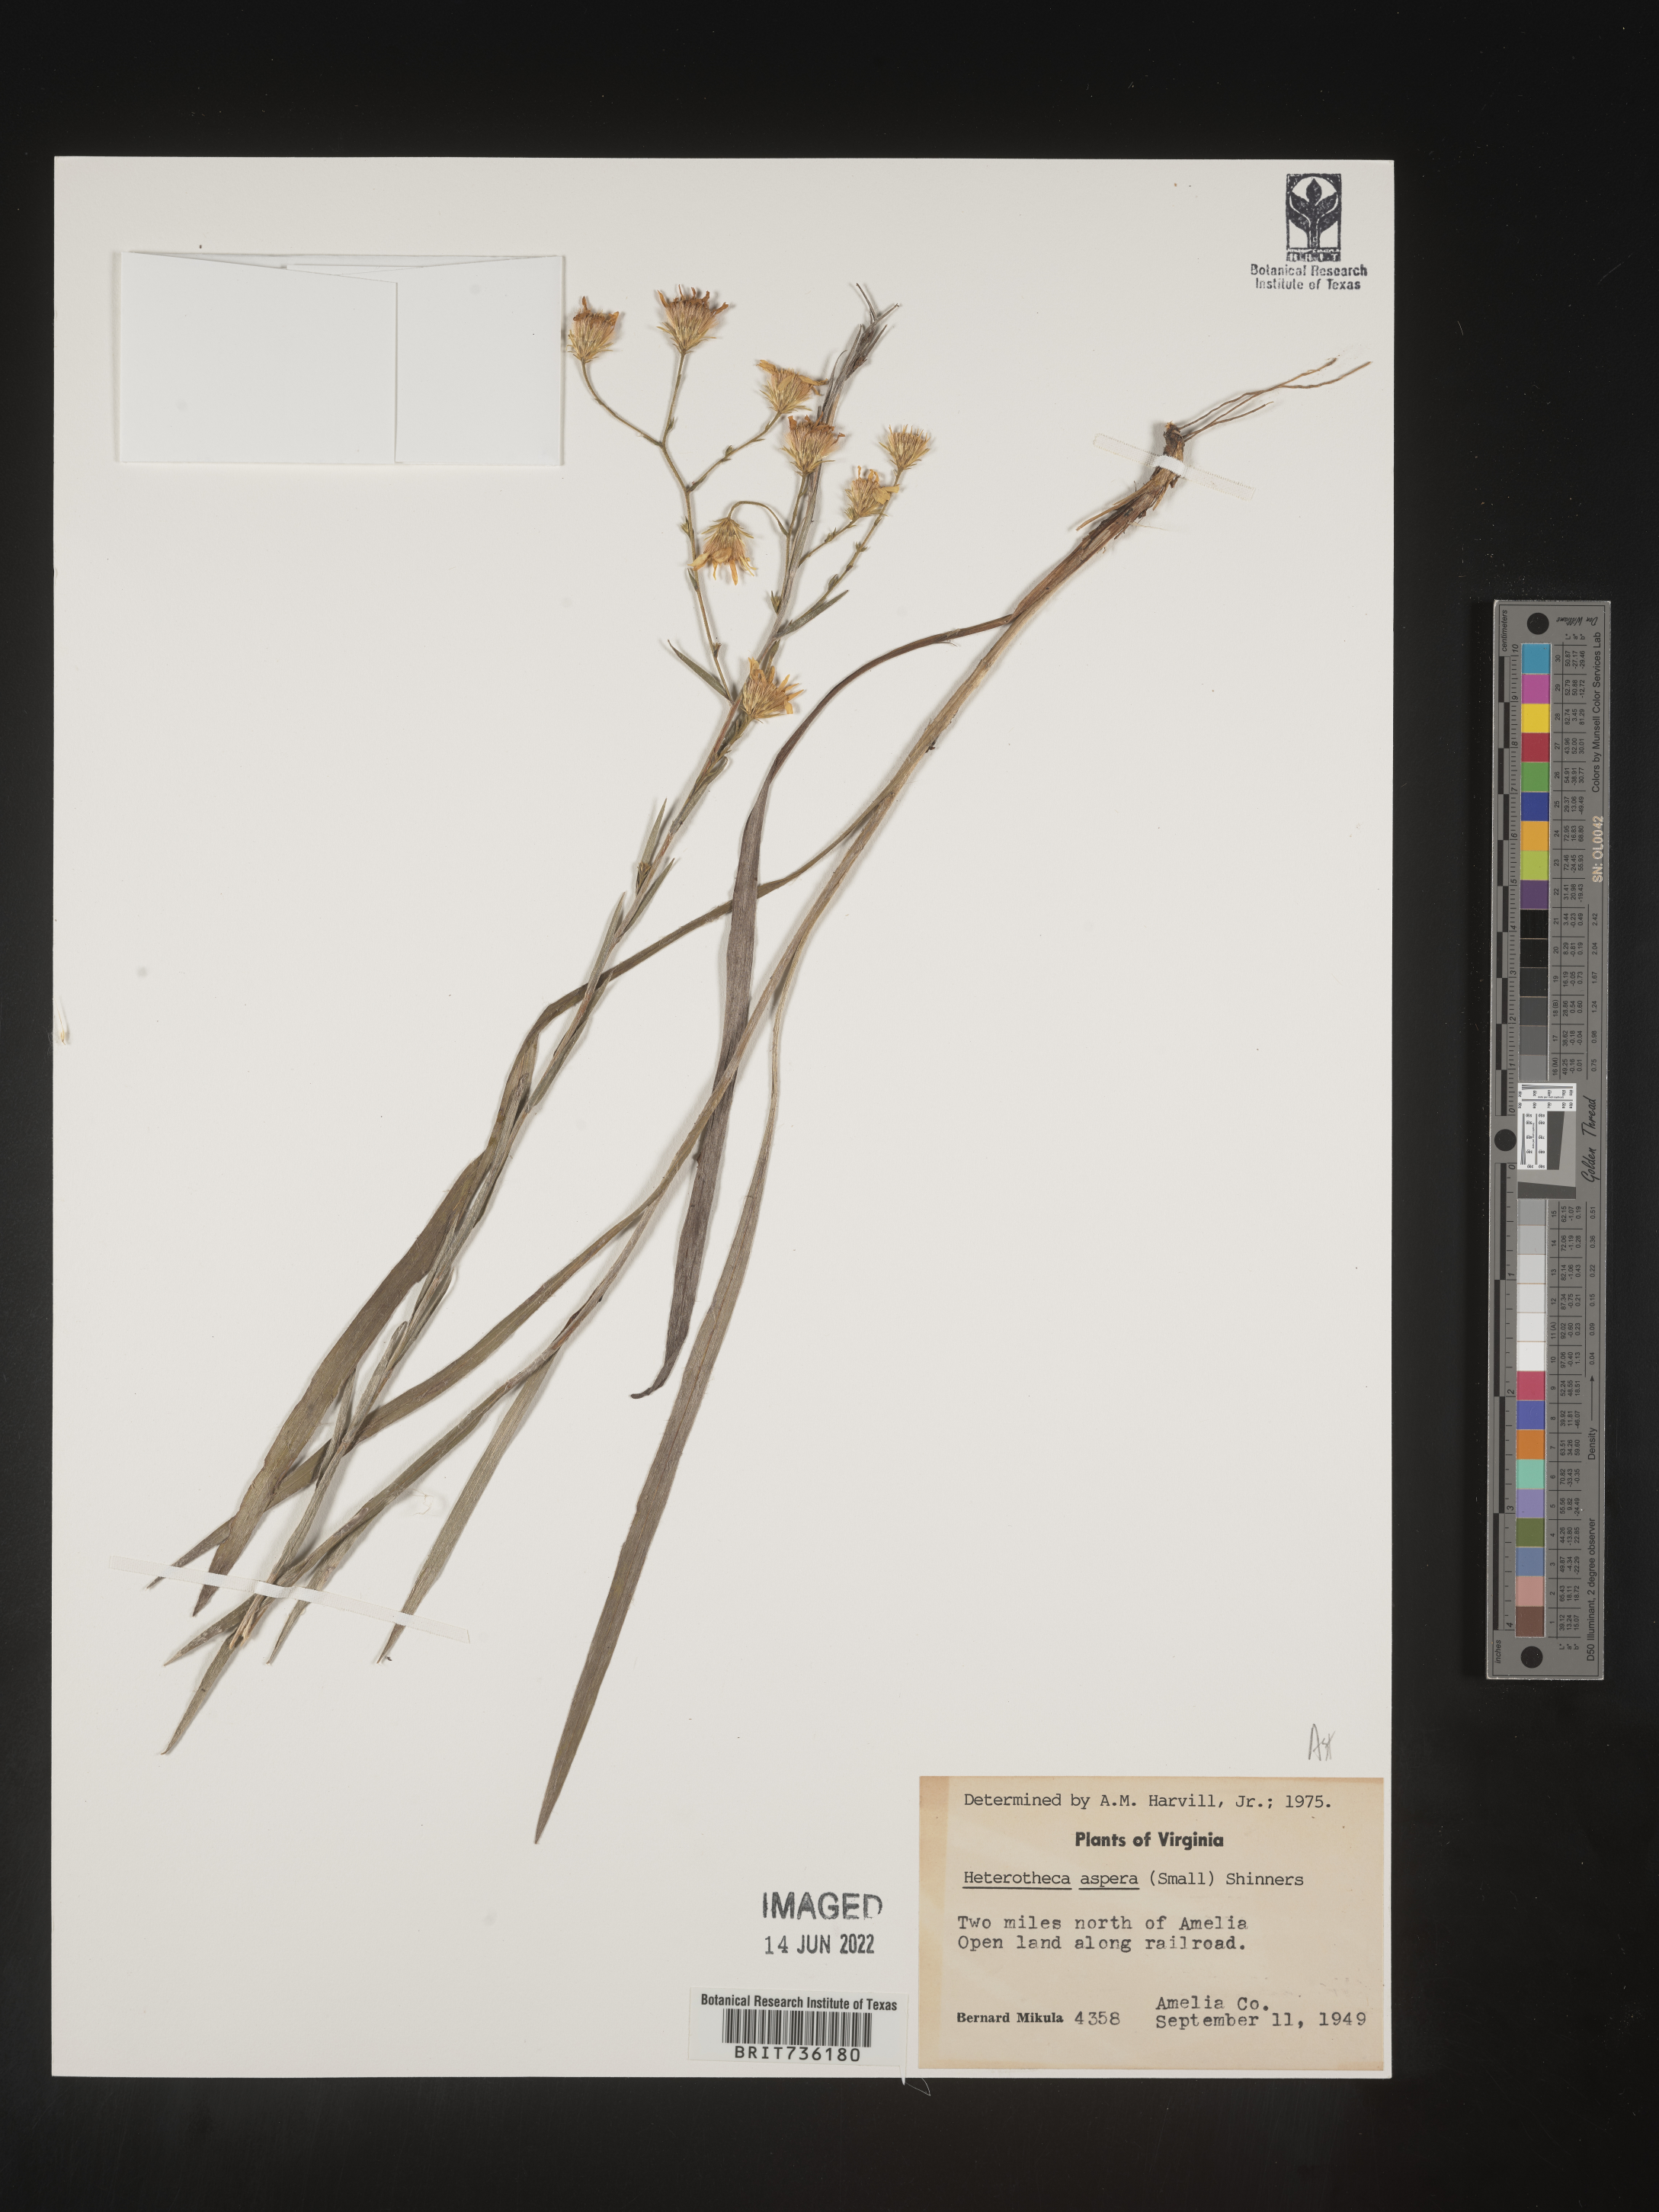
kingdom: Plantae
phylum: Tracheophyta
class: Magnoliopsida
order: Asterales
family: Asteraceae
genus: Pityopsis
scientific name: Pityopsis aspera
